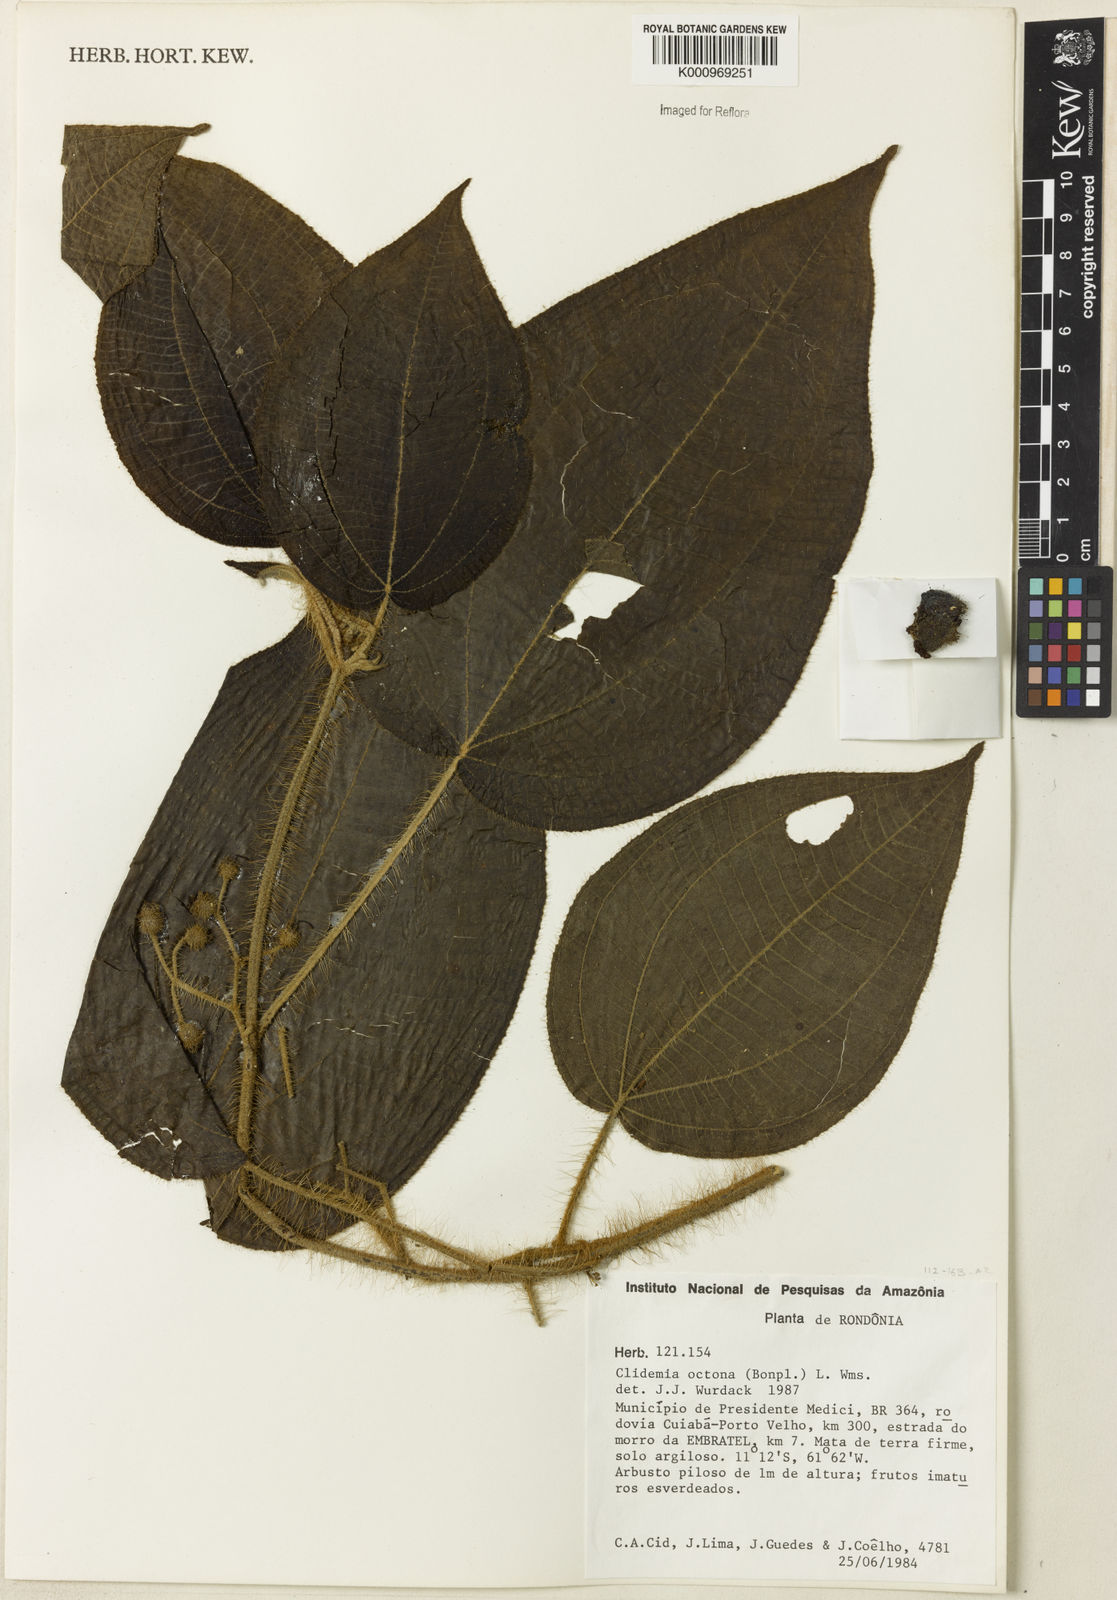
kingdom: Plantae
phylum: Tracheophyta
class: Magnoliopsida
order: Myrtales
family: Melastomataceae
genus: Miconia
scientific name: Miconia octona
